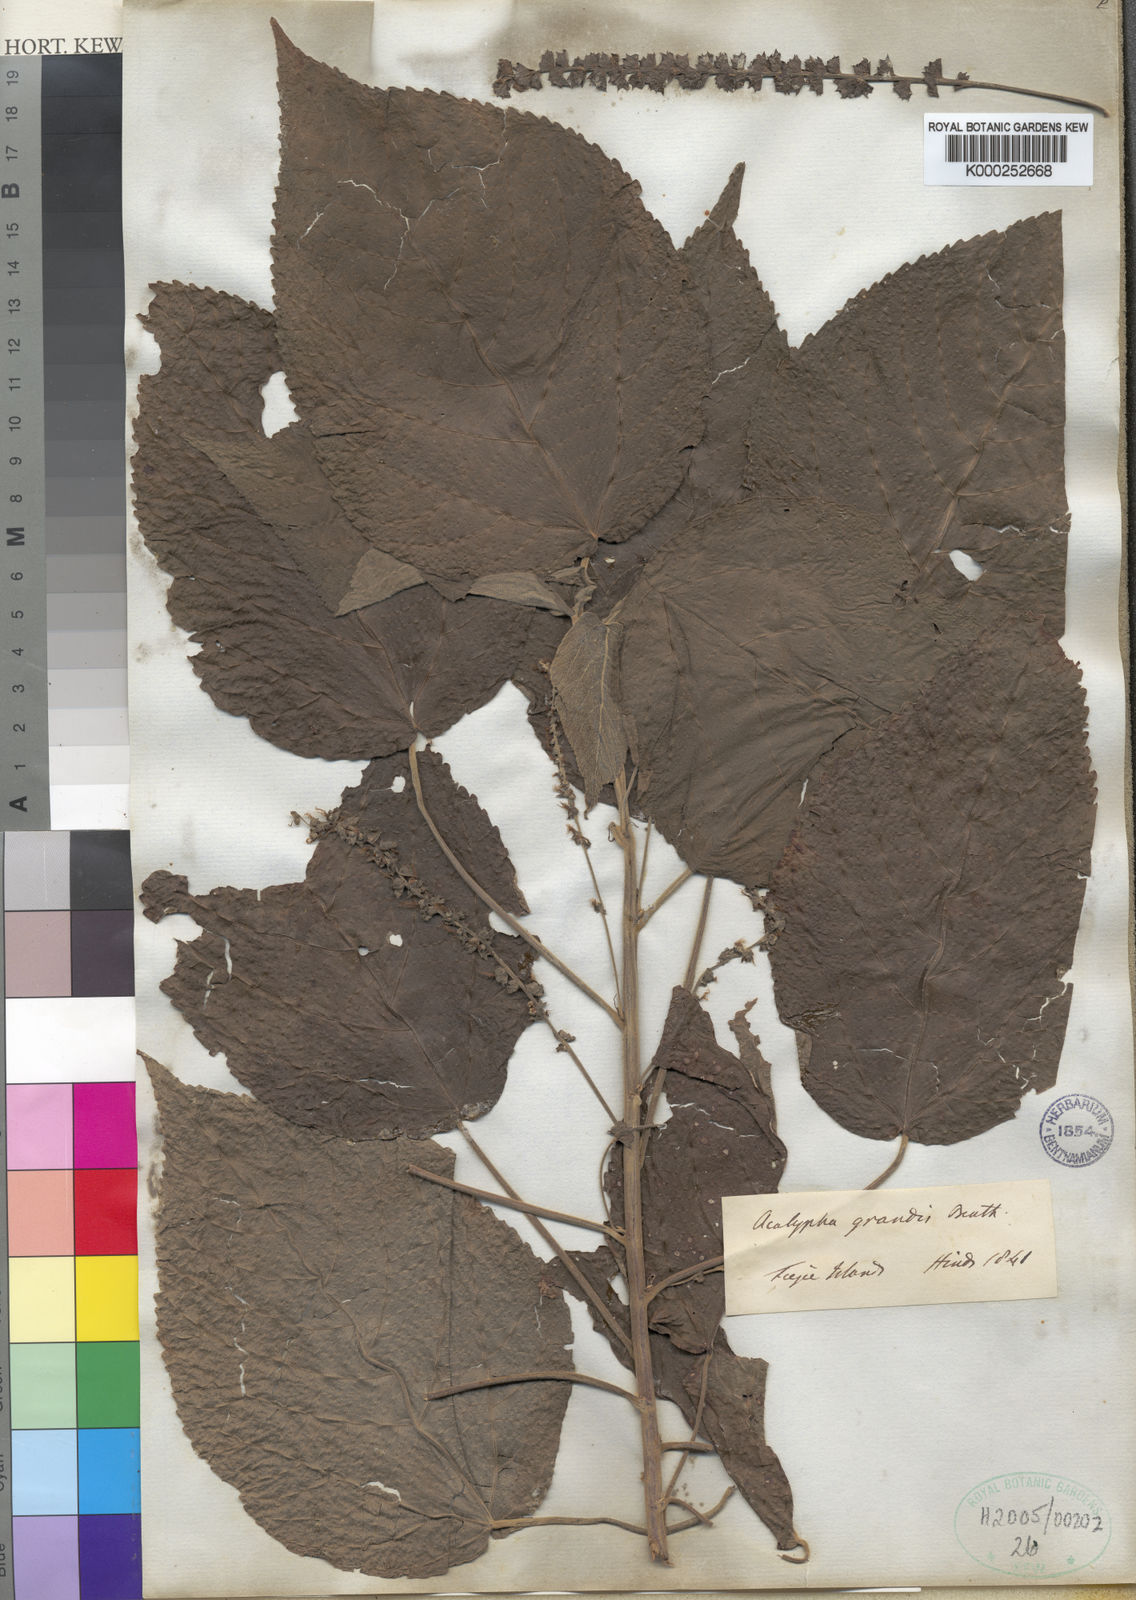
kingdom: Plantae
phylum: Tracheophyta
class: Magnoliopsida
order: Malpighiales
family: Euphorbiaceae
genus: Acalypha
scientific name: Acalypha grandis
